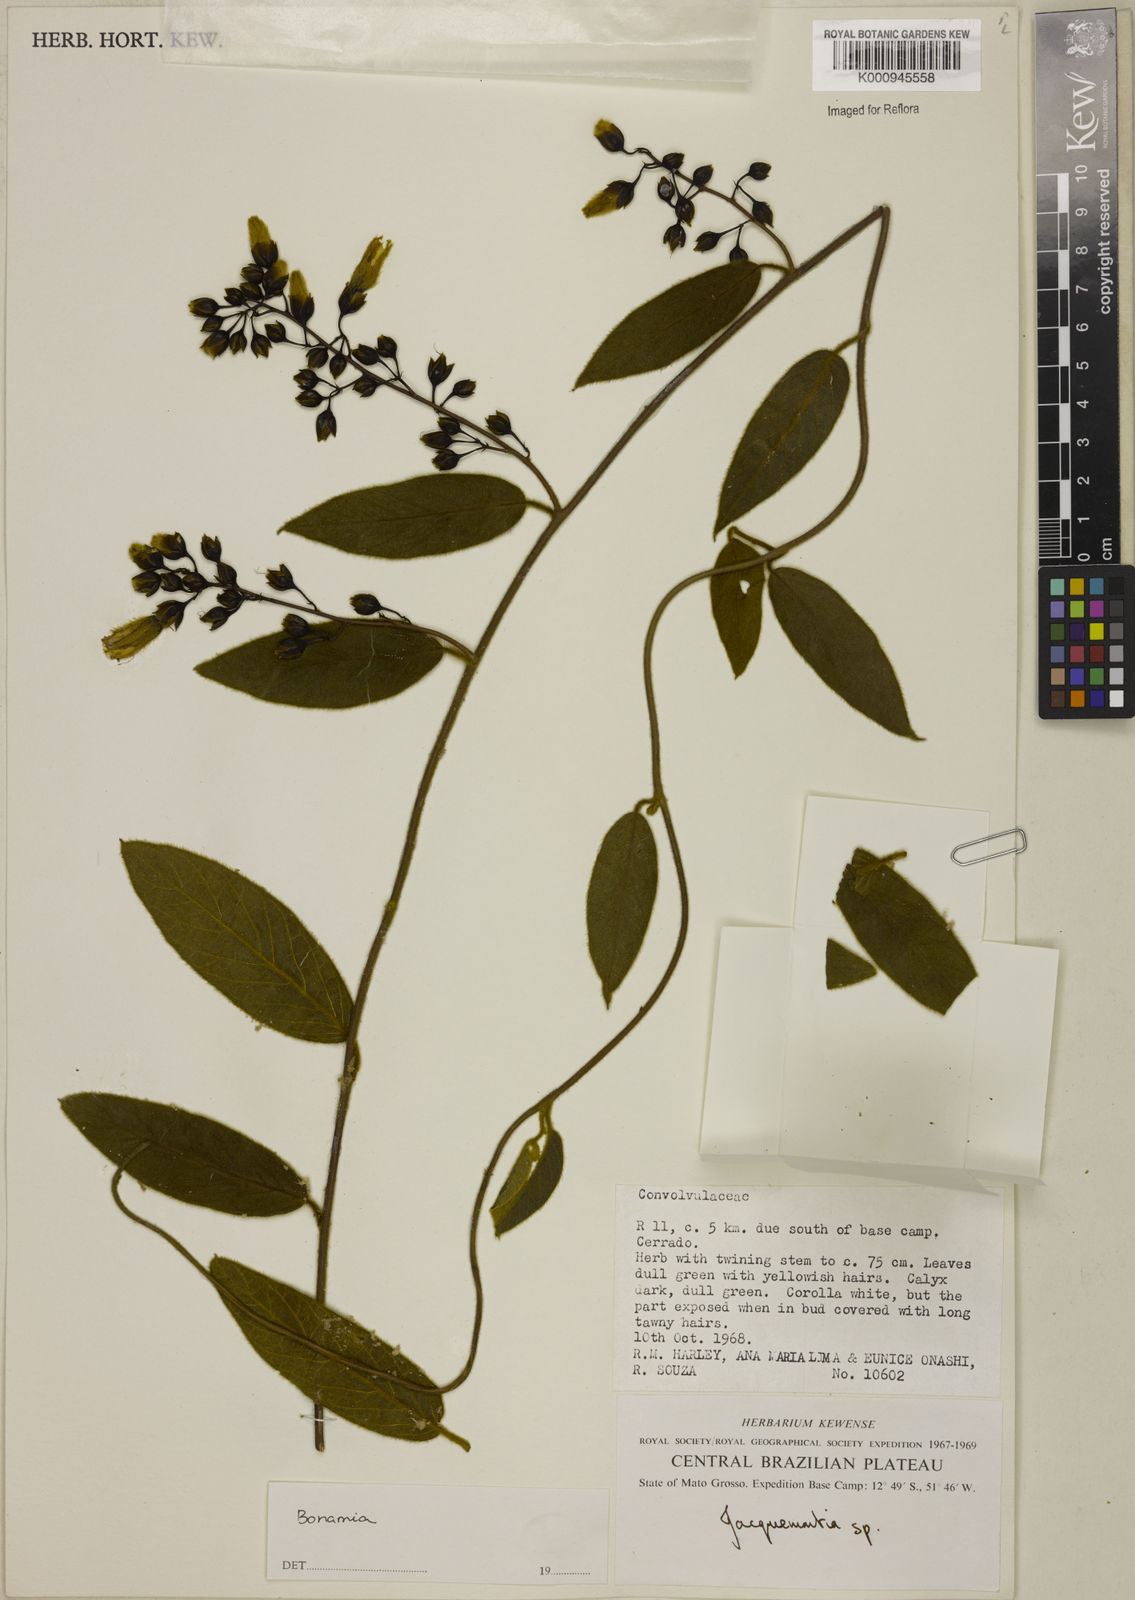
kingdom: Plantae
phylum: Tracheophyta
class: Magnoliopsida
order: Solanales
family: Convolvulaceae
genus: Bonamia
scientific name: Bonamia
